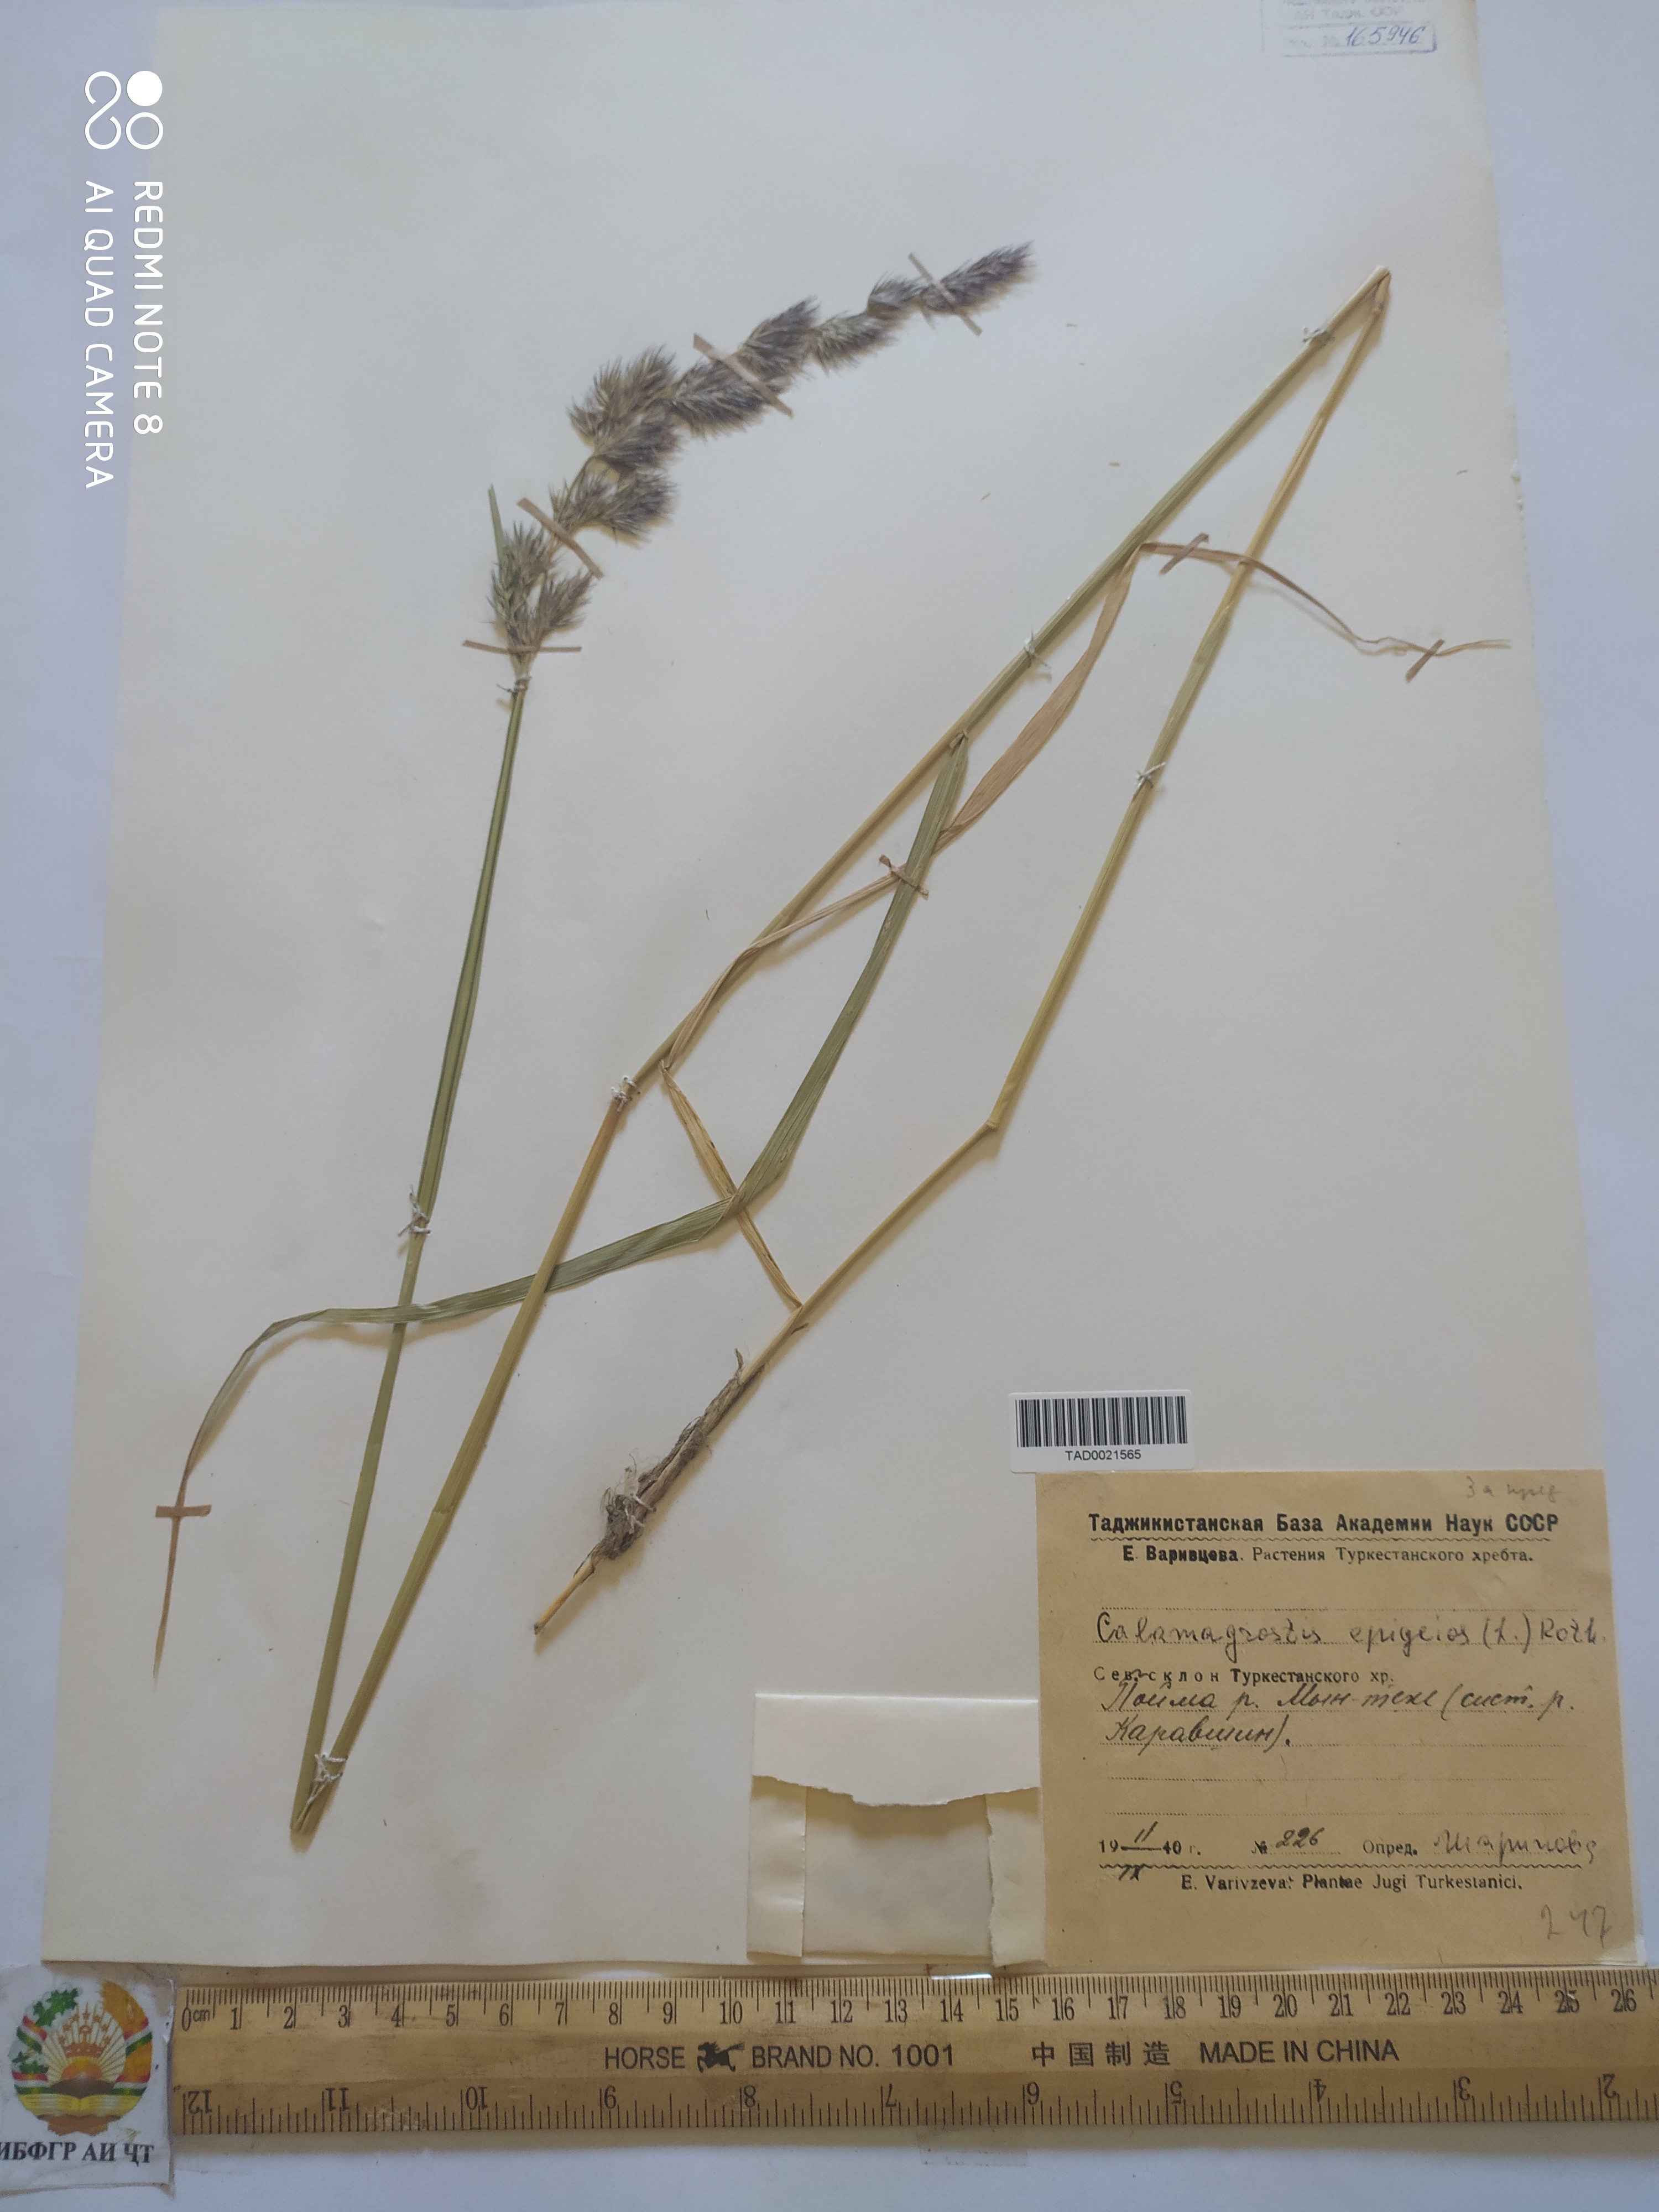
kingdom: Plantae
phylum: Tracheophyta
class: Liliopsida
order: Poales
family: Poaceae
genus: Calamagrostis
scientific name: Calamagrostis epigejos
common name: Wood small-reed
